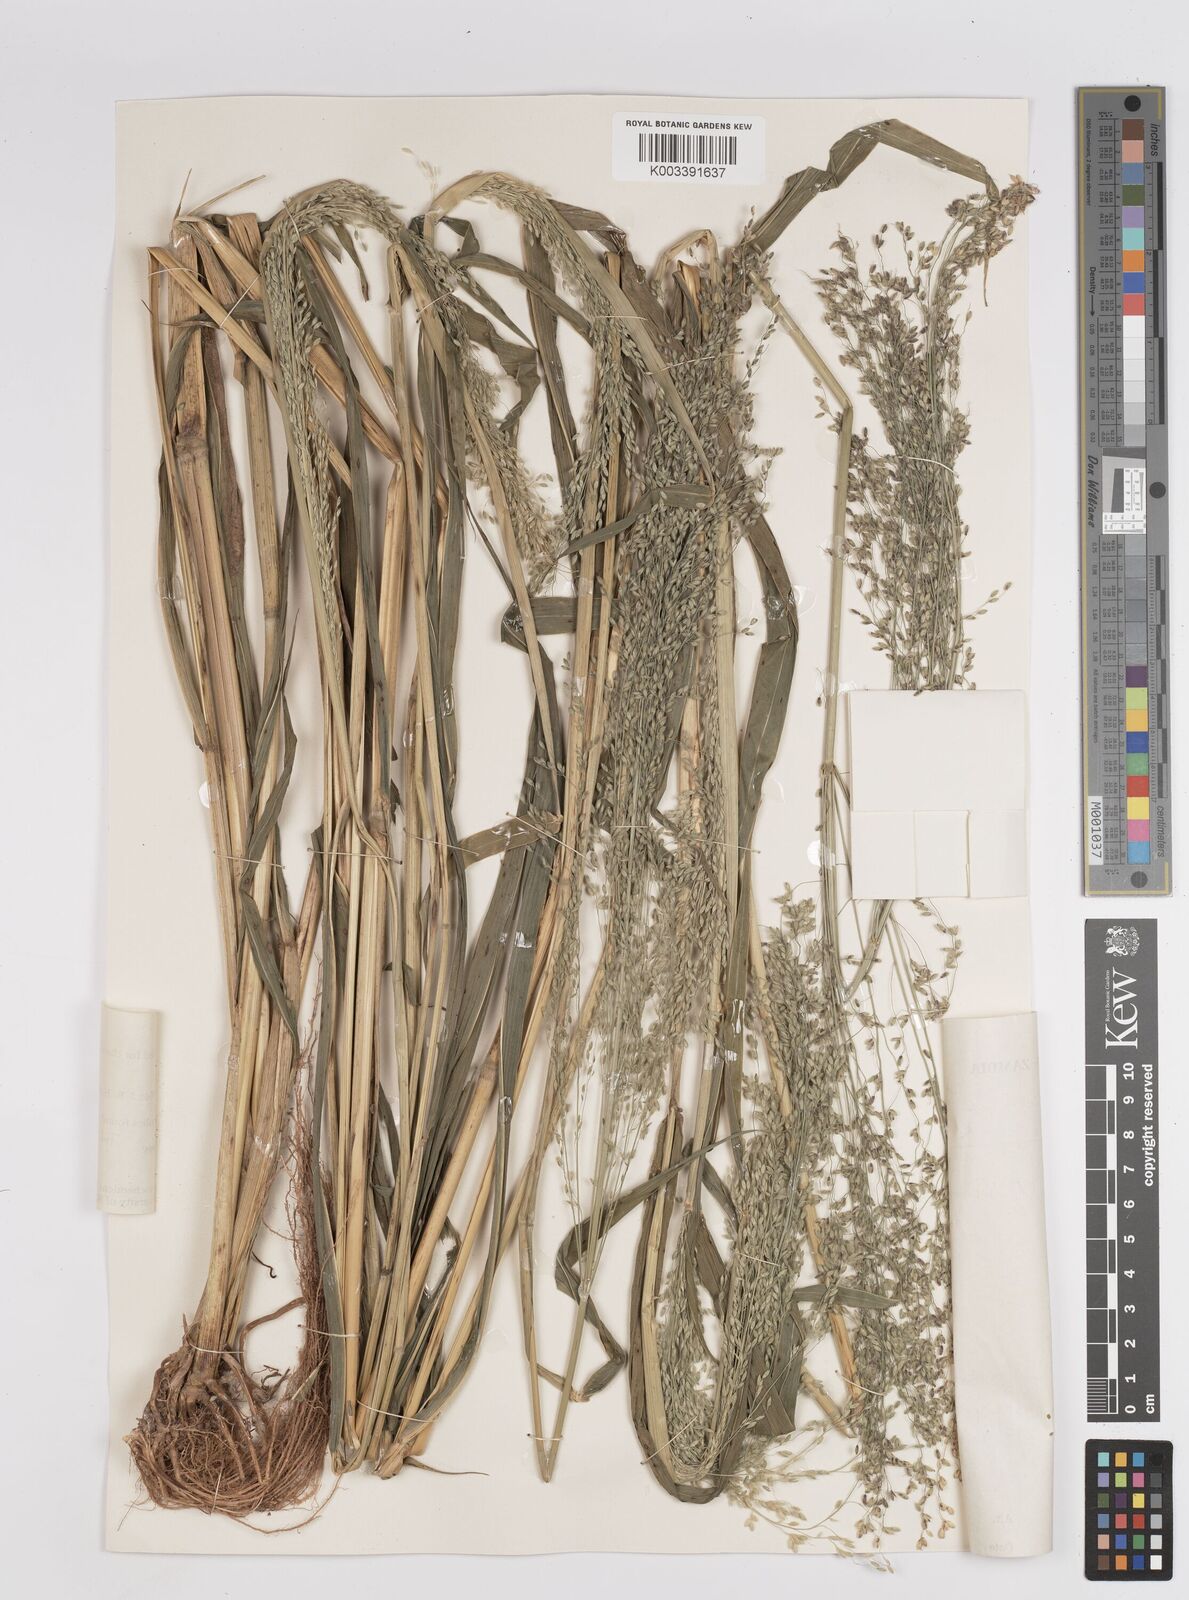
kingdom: Plantae
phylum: Tracheophyta
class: Liliopsida
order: Poales
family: Poaceae
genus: Megathyrsus
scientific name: Megathyrsus maximus
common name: Guineagrass
